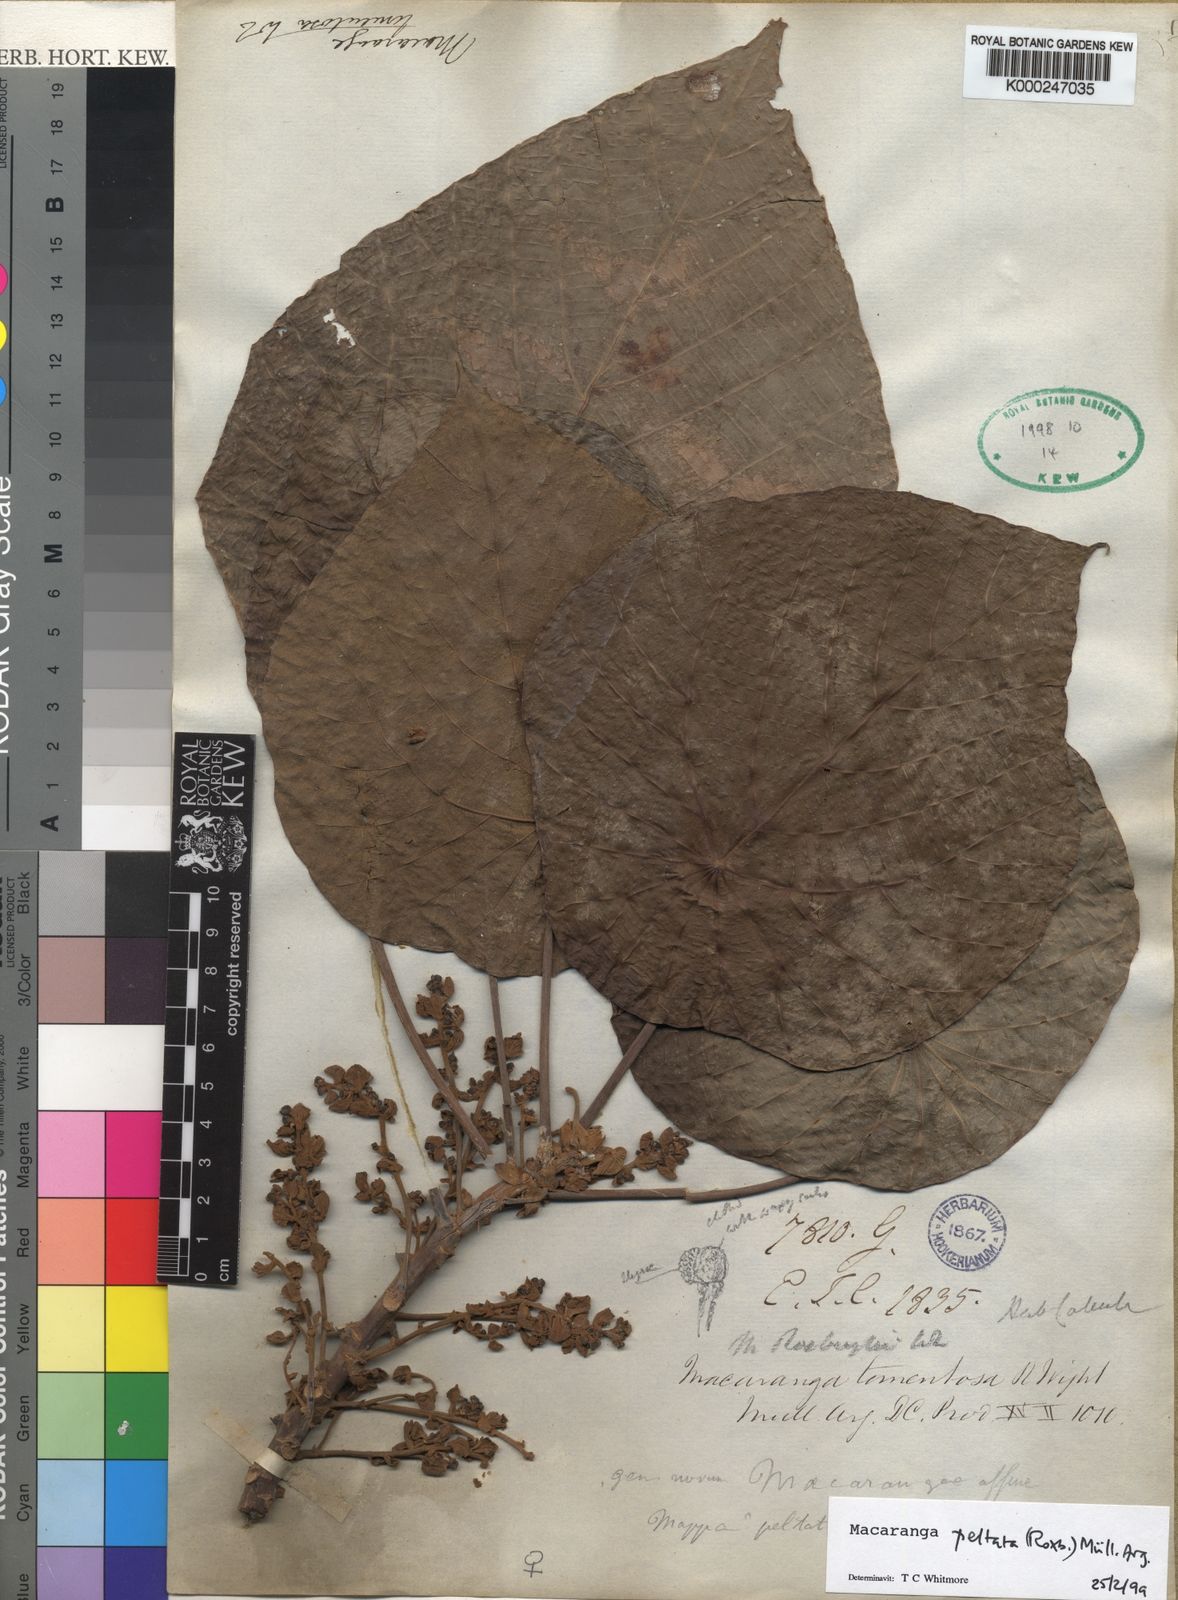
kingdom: Plantae
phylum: Tracheophyta
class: Magnoliopsida
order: Malpighiales
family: Euphorbiaceae
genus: Macaranga
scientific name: Macaranga
